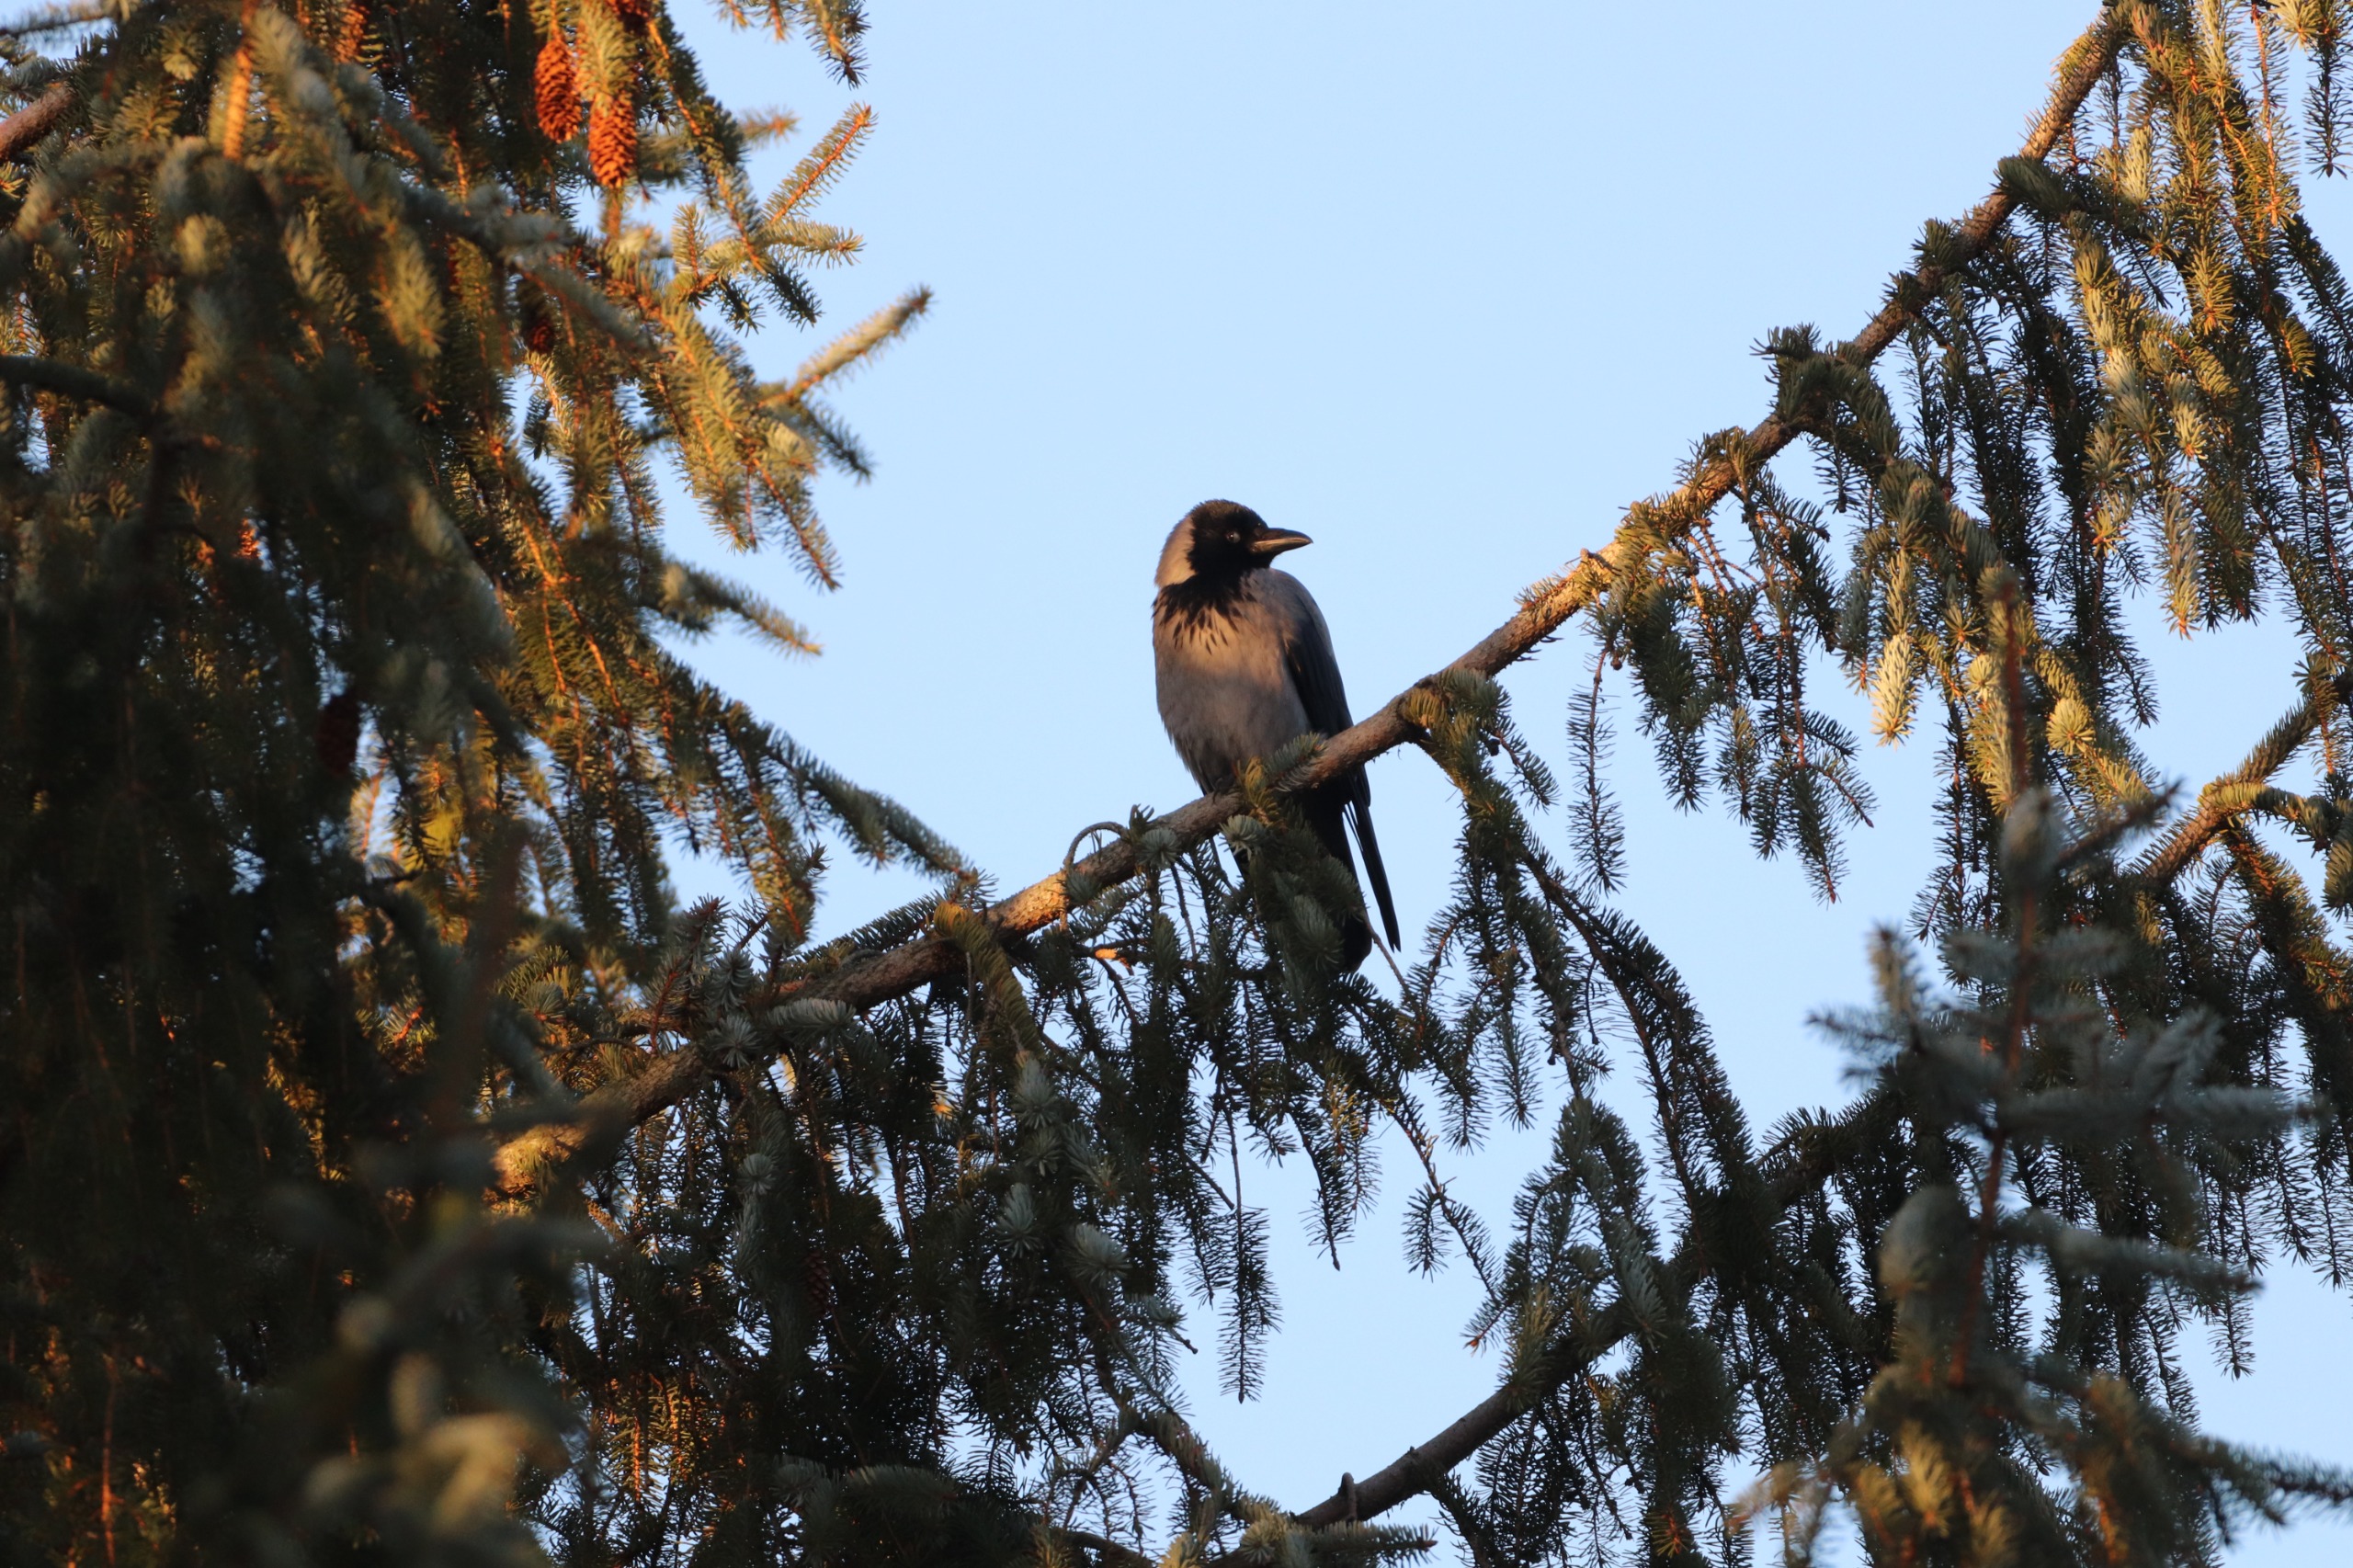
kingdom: Animalia
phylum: Chordata
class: Aves
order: Passeriformes
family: Corvidae
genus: Corvus
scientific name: Corvus cornix
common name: Gråkrage
